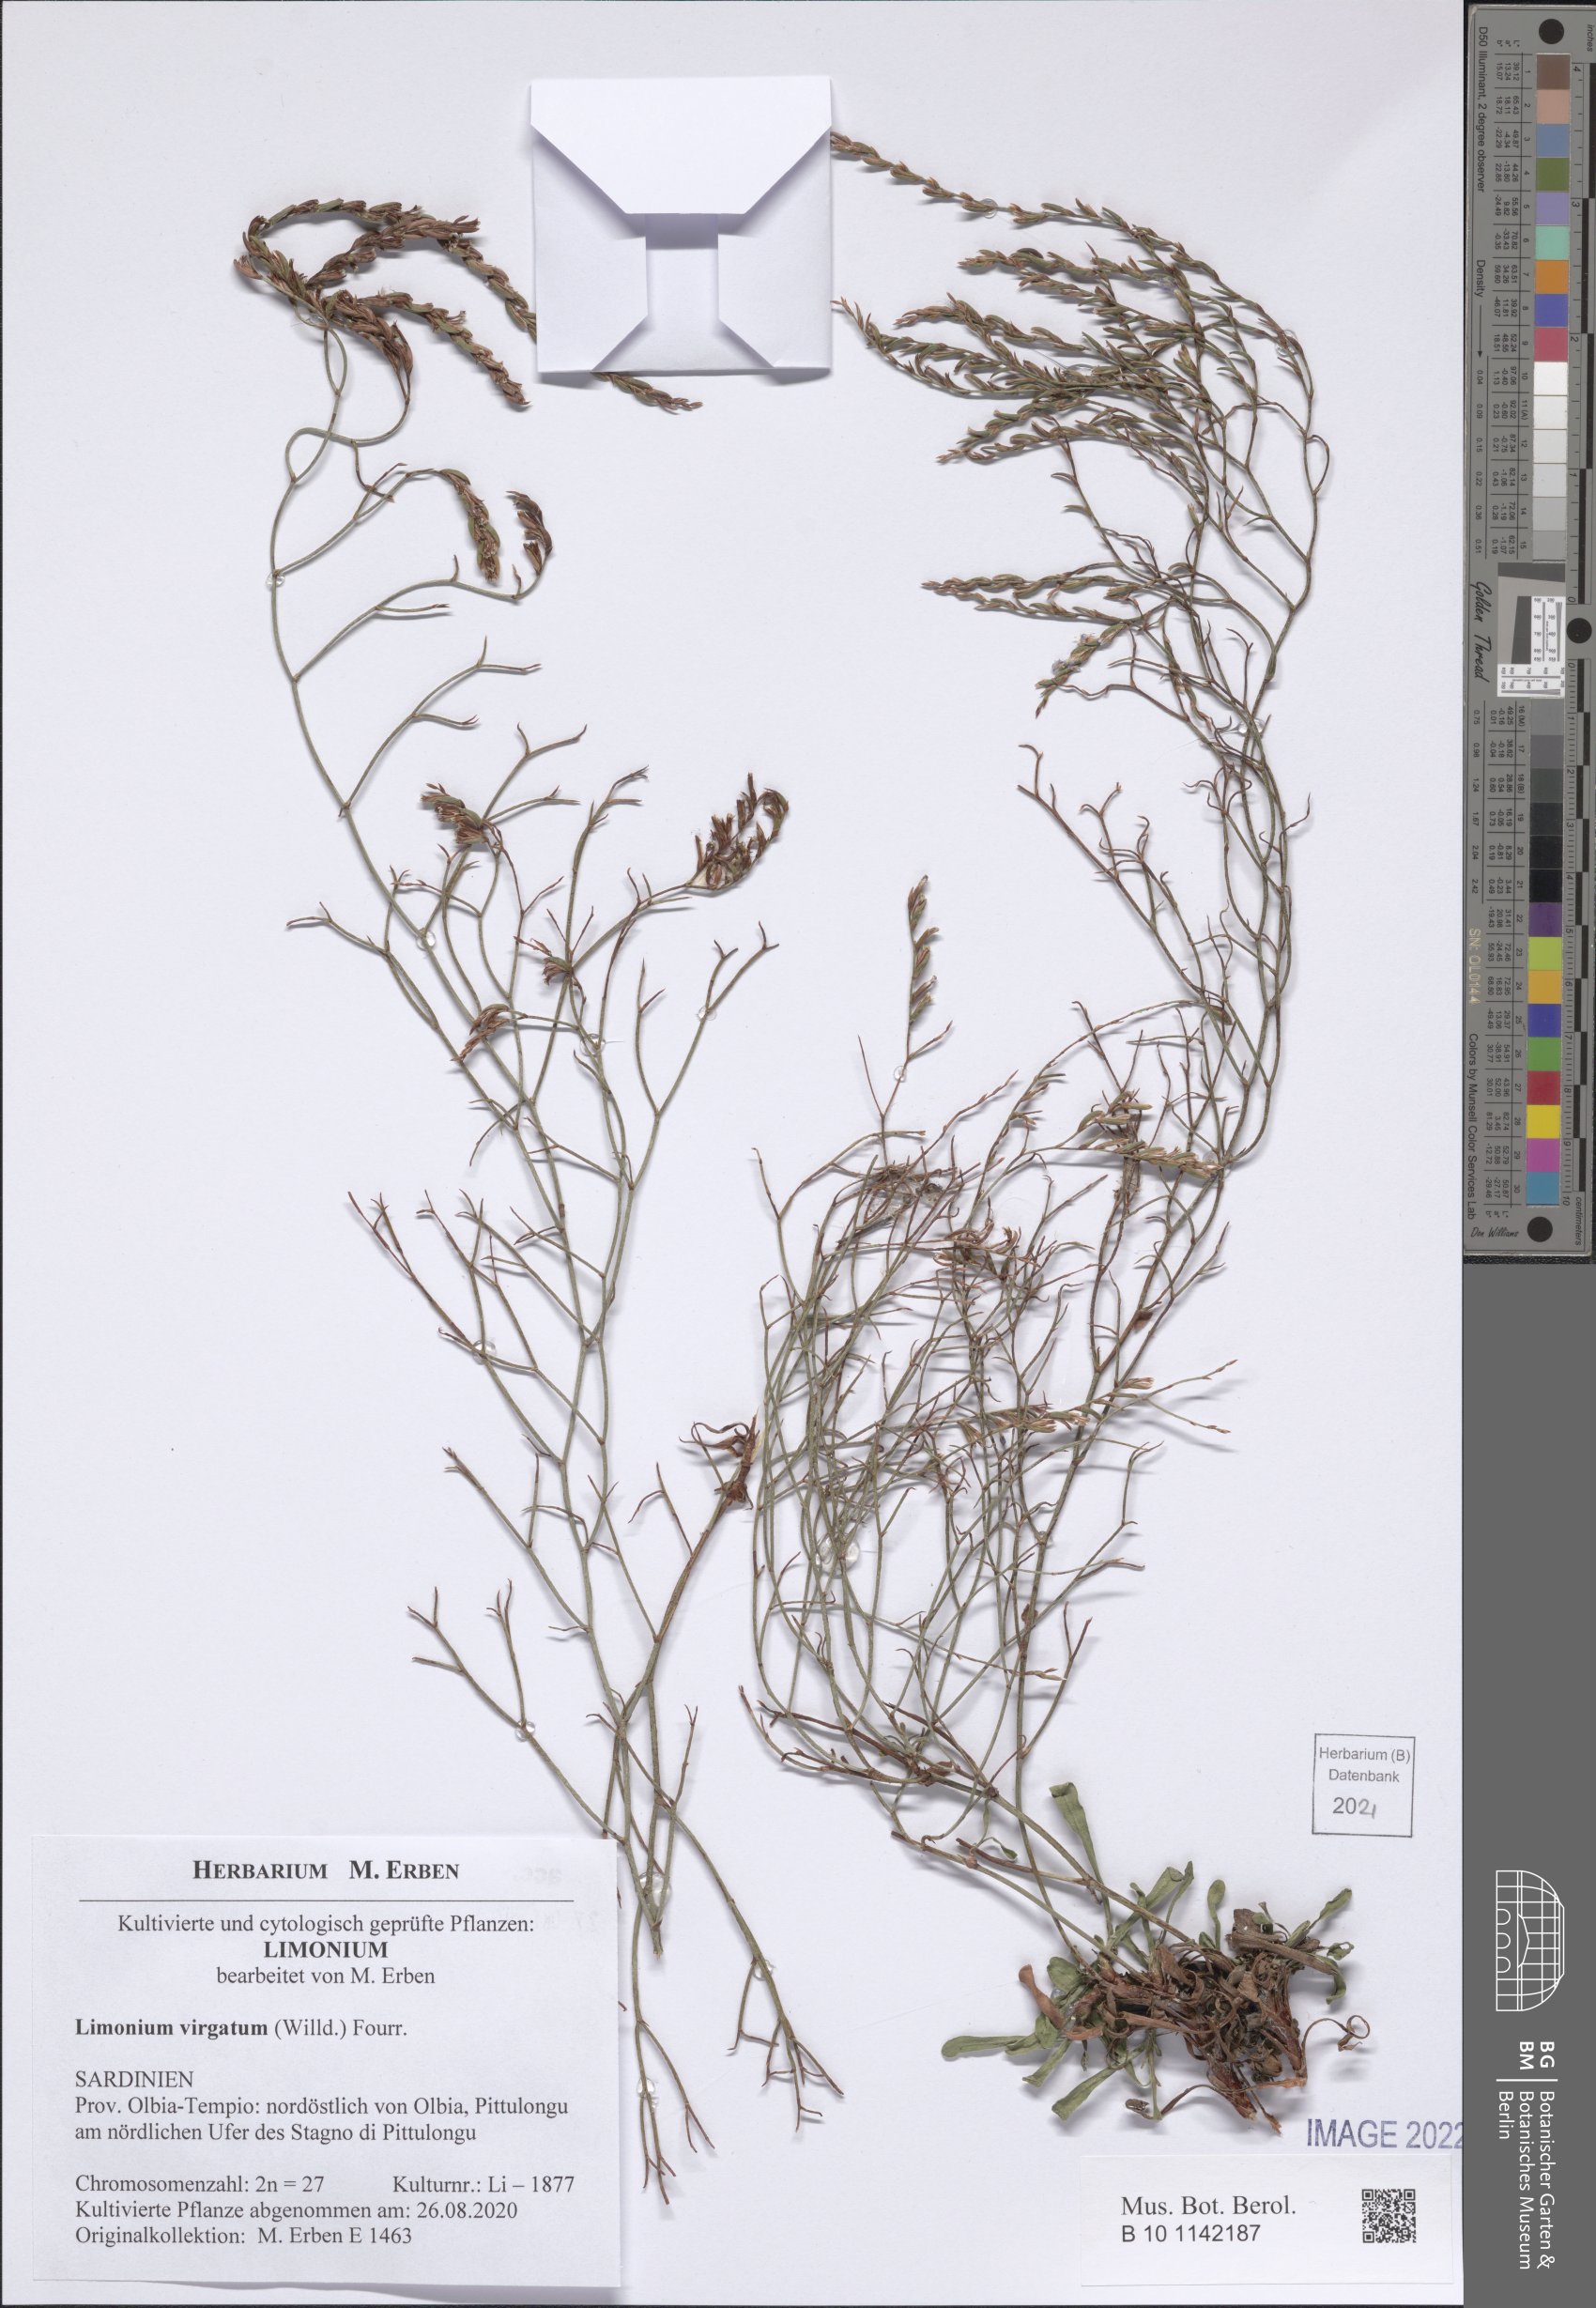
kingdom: Plantae
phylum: Tracheophyta
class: Magnoliopsida
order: Caryophyllales
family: Plumbaginaceae
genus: Limonium
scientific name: Limonium virgatum
